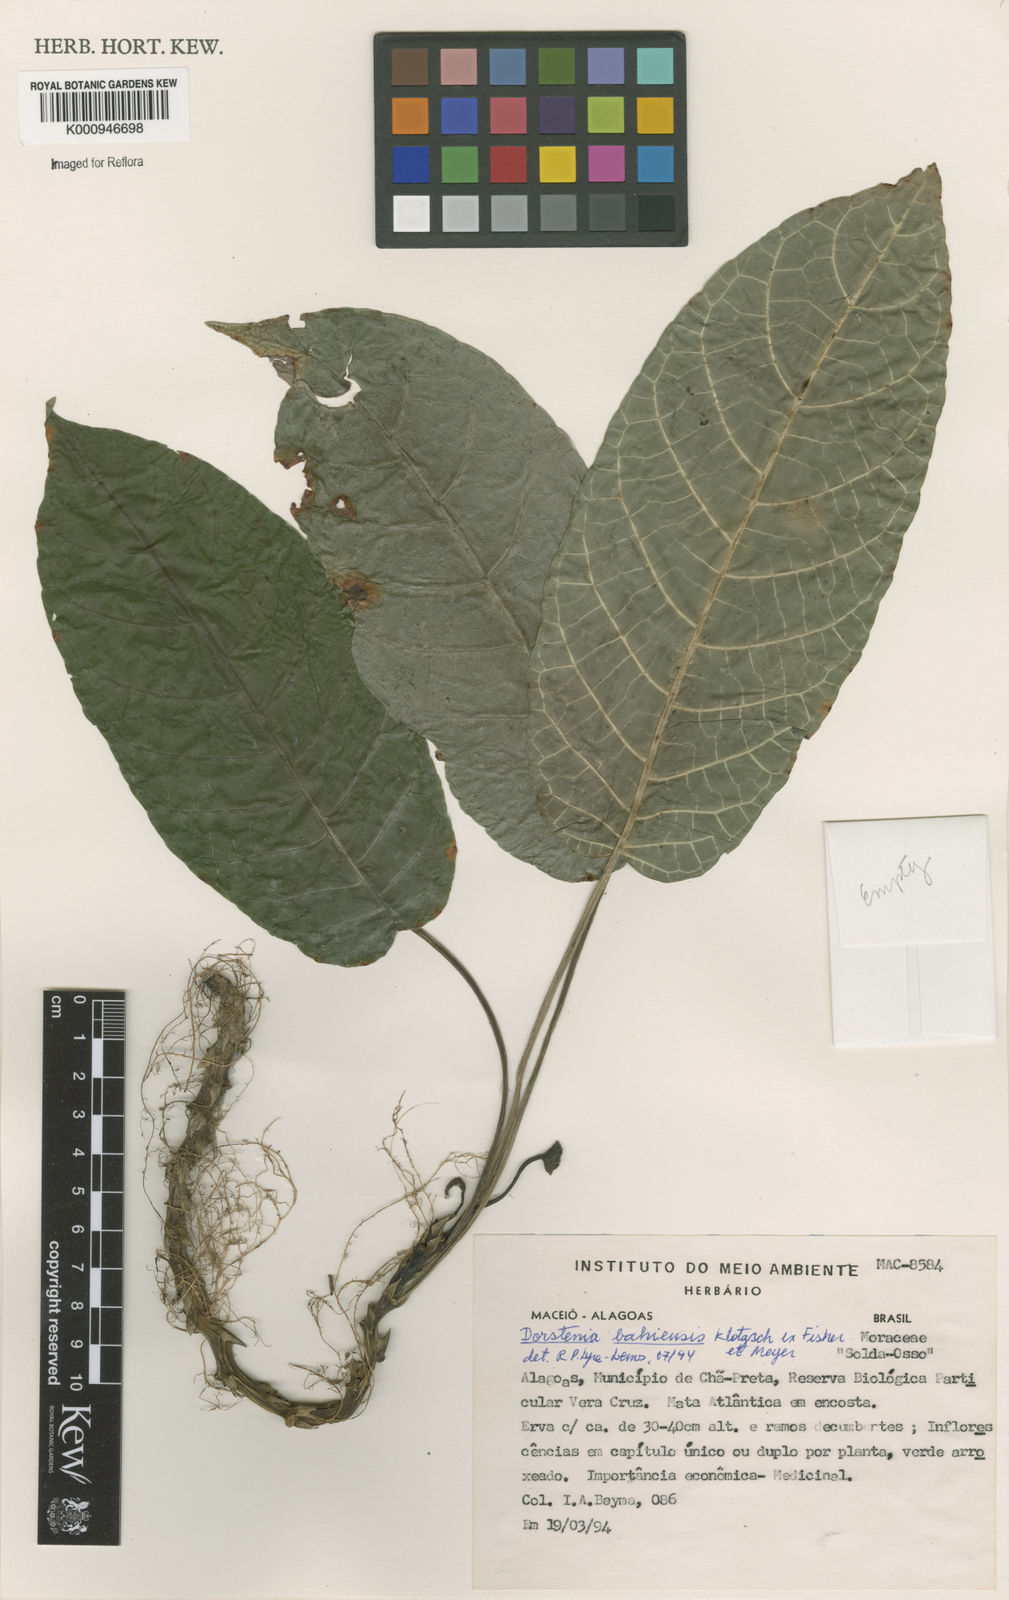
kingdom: Plantae
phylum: Tracheophyta
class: Magnoliopsida
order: Rosales
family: Moraceae
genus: Dorstenia
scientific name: Dorstenia bahiensis
